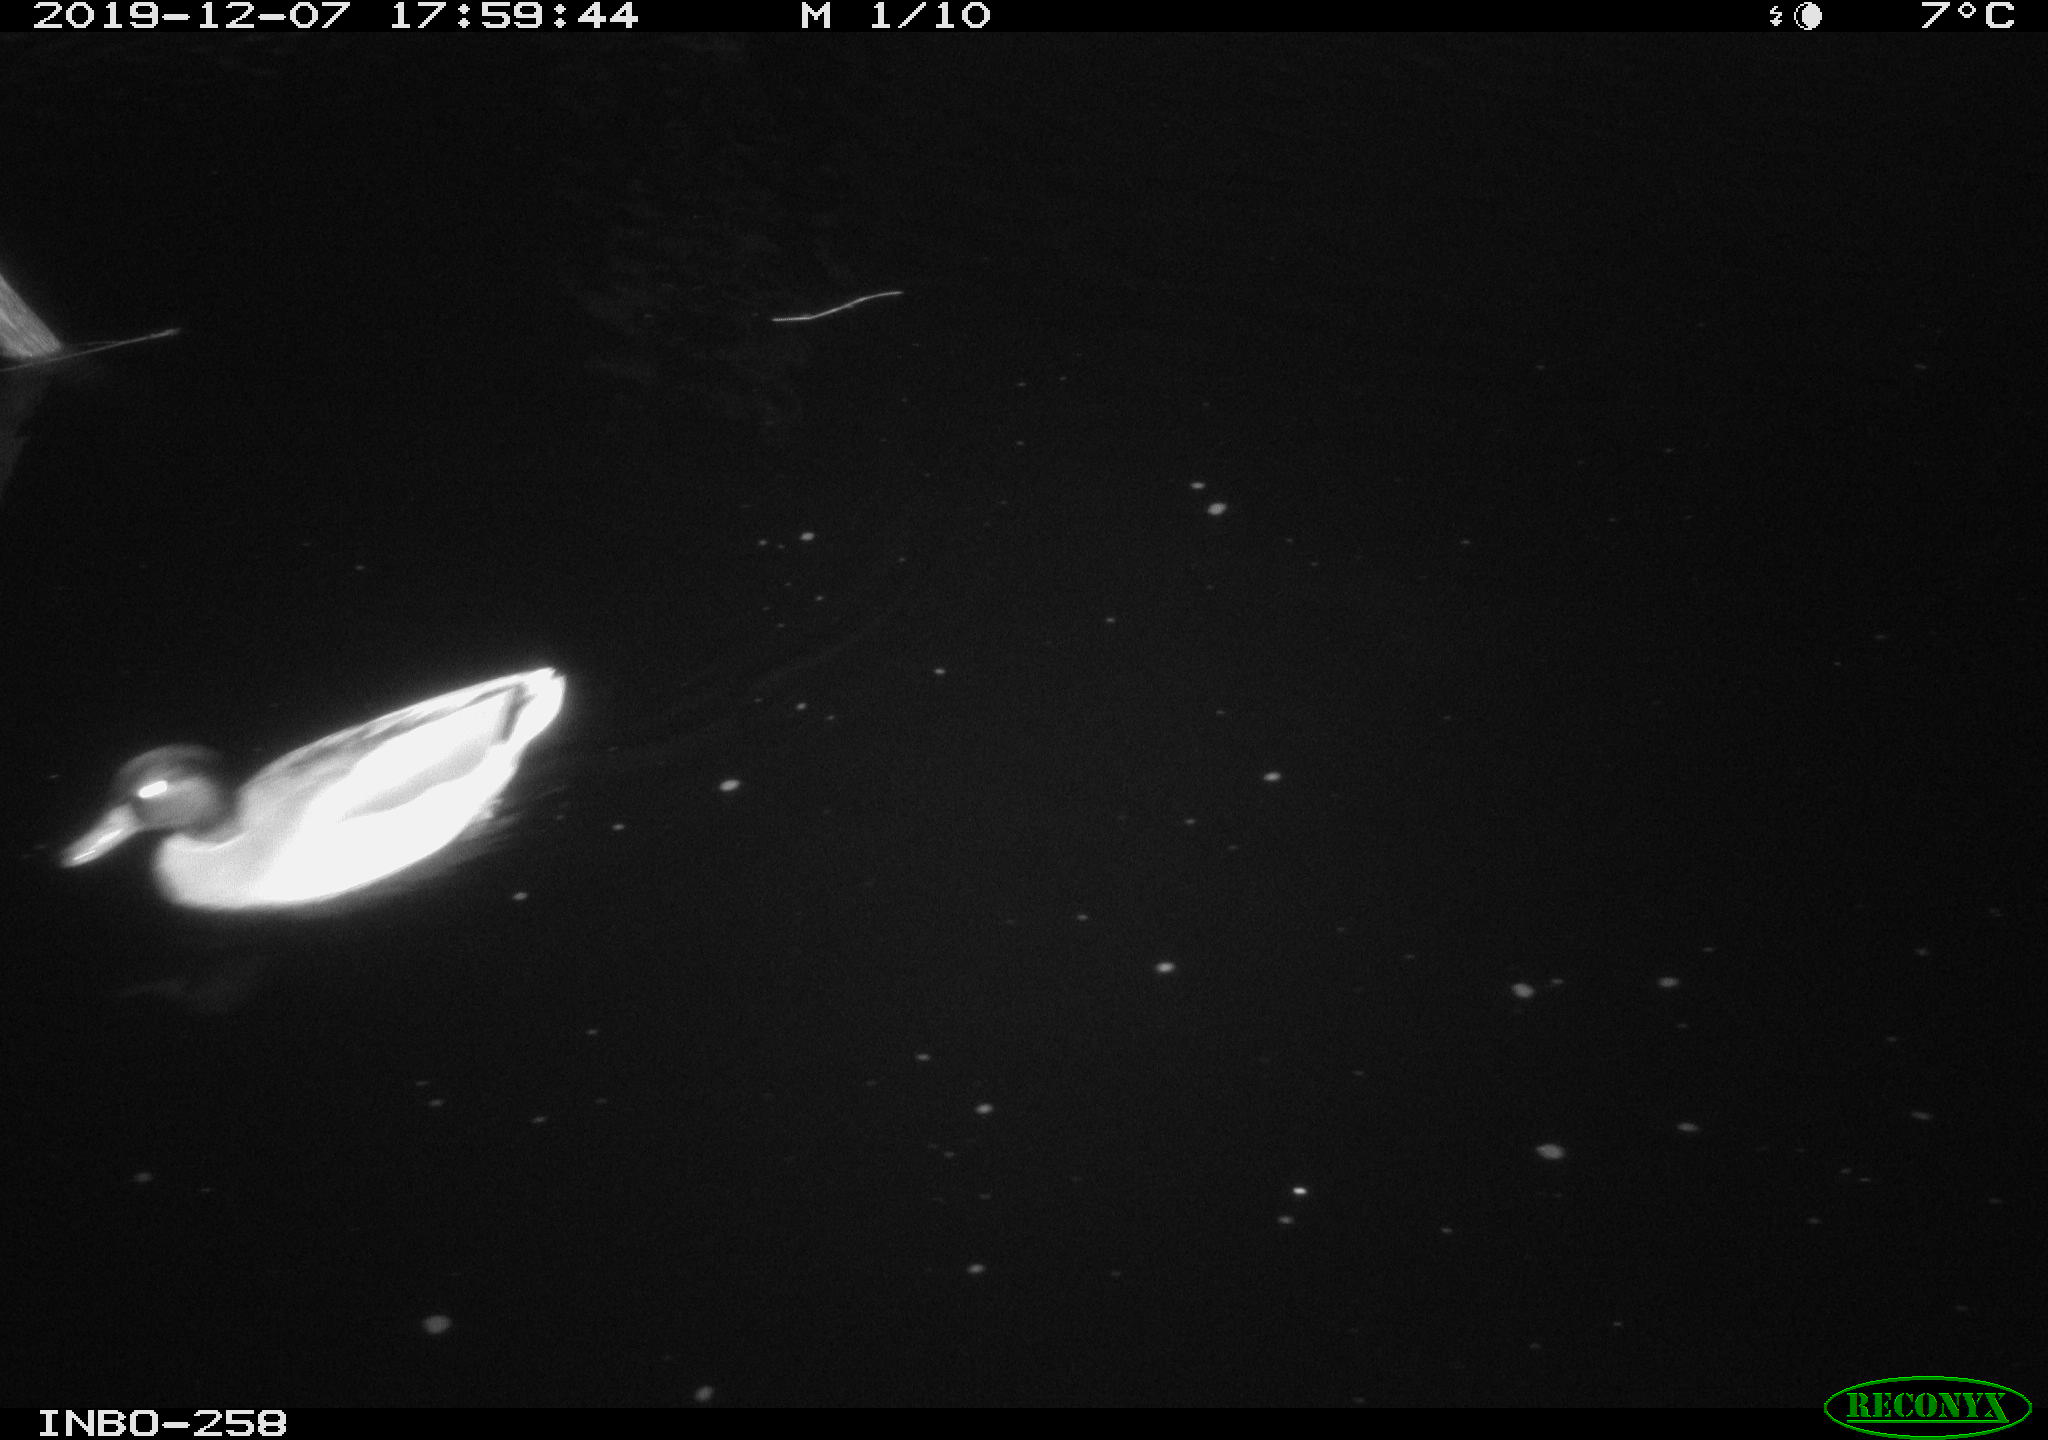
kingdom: Animalia
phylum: Chordata
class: Aves
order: Anseriformes
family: Anatidae
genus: Anas
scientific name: Anas platyrhynchos
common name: Mallard
